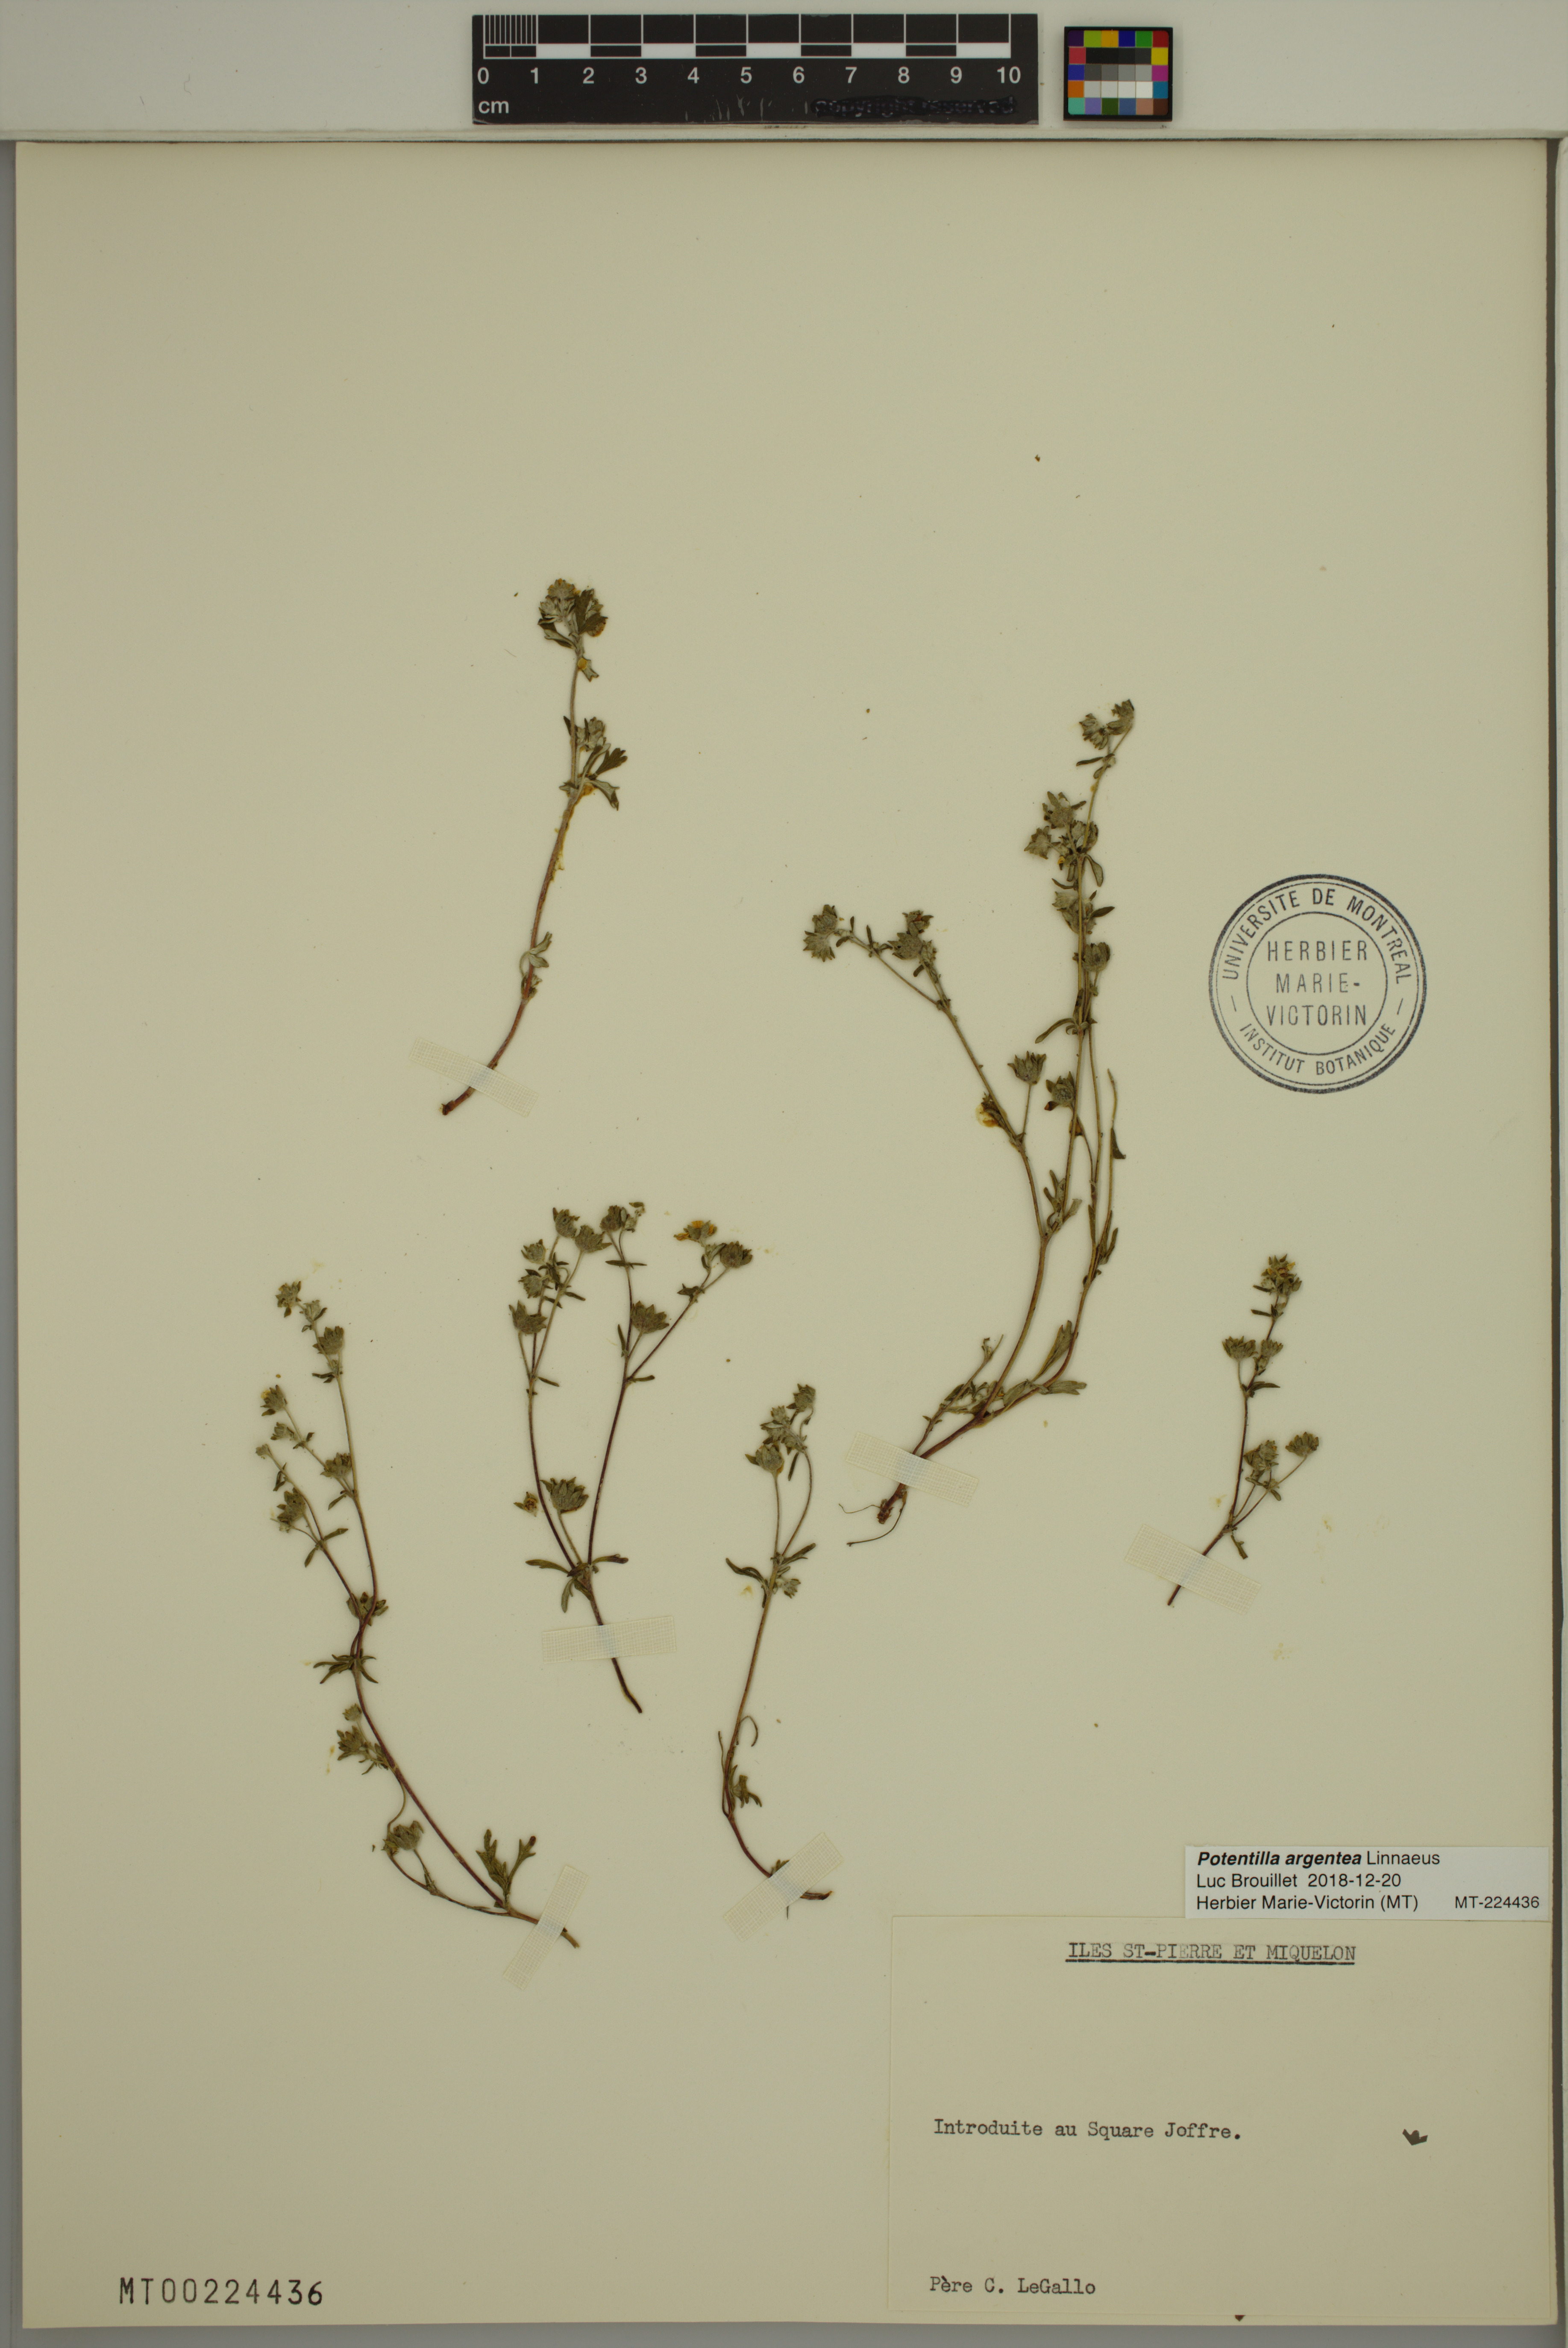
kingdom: Plantae
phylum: Tracheophyta
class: Magnoliopsida
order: Rosales
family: Rosaceae
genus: Potentilla
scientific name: Potentilla argentea
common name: Hoary cinquefoil
